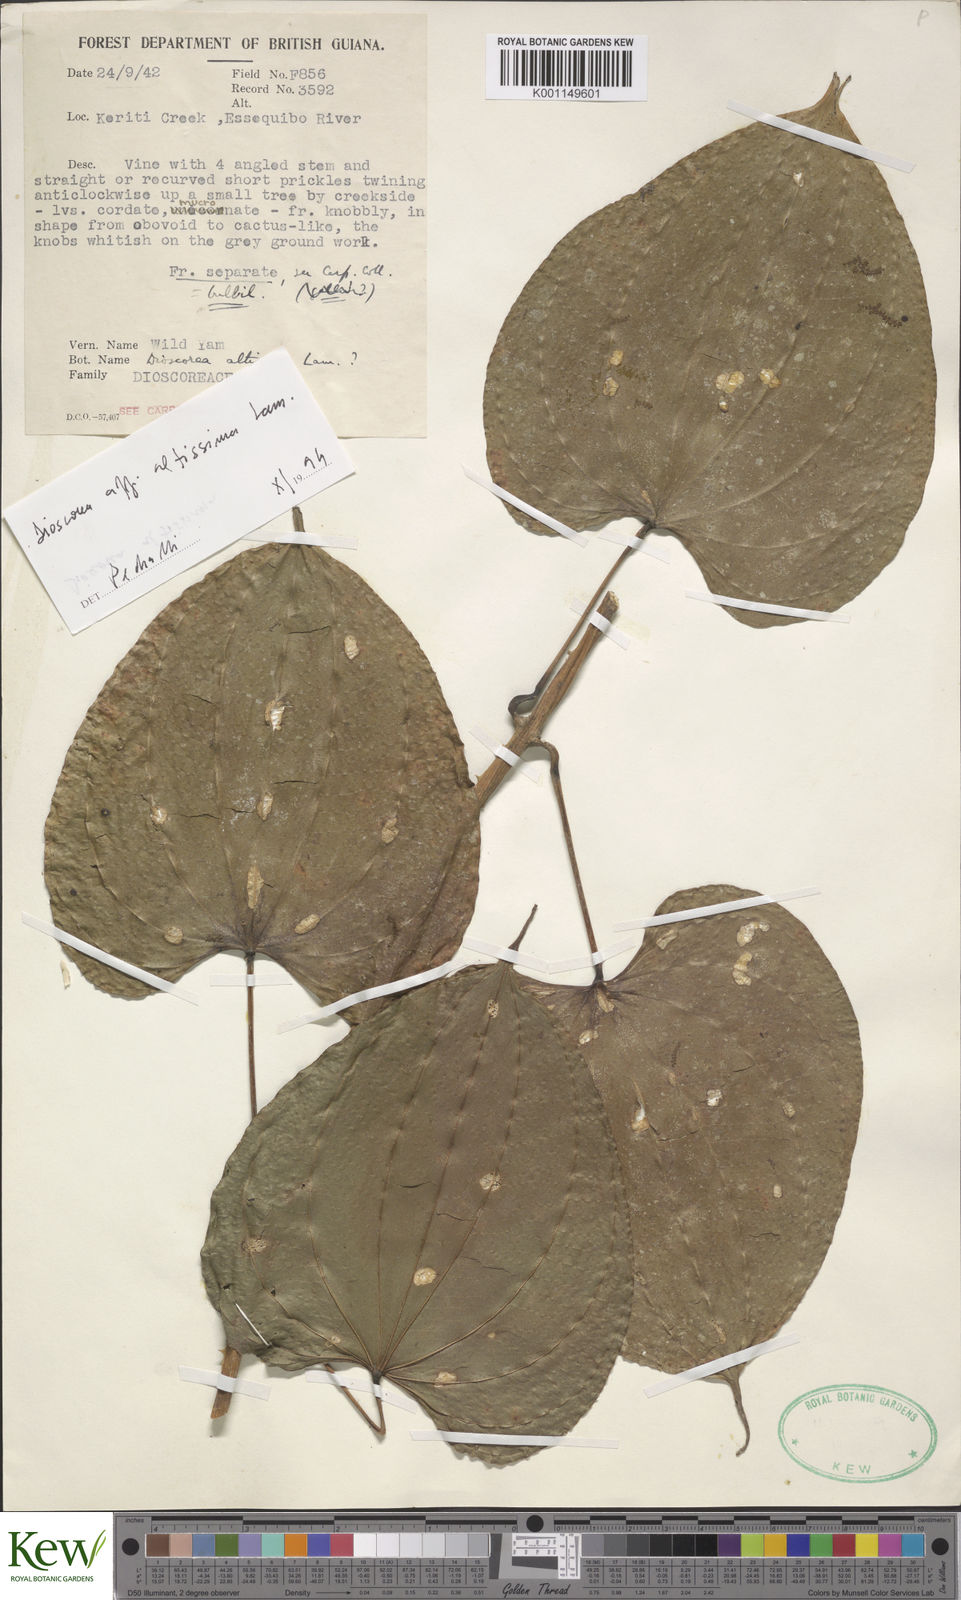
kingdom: Plantae
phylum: Tracheophyta
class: Liliopsida
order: Dioscoreales
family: Dioscoreaceae
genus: Dioscorea
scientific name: Dioscorea chondrocarpa
